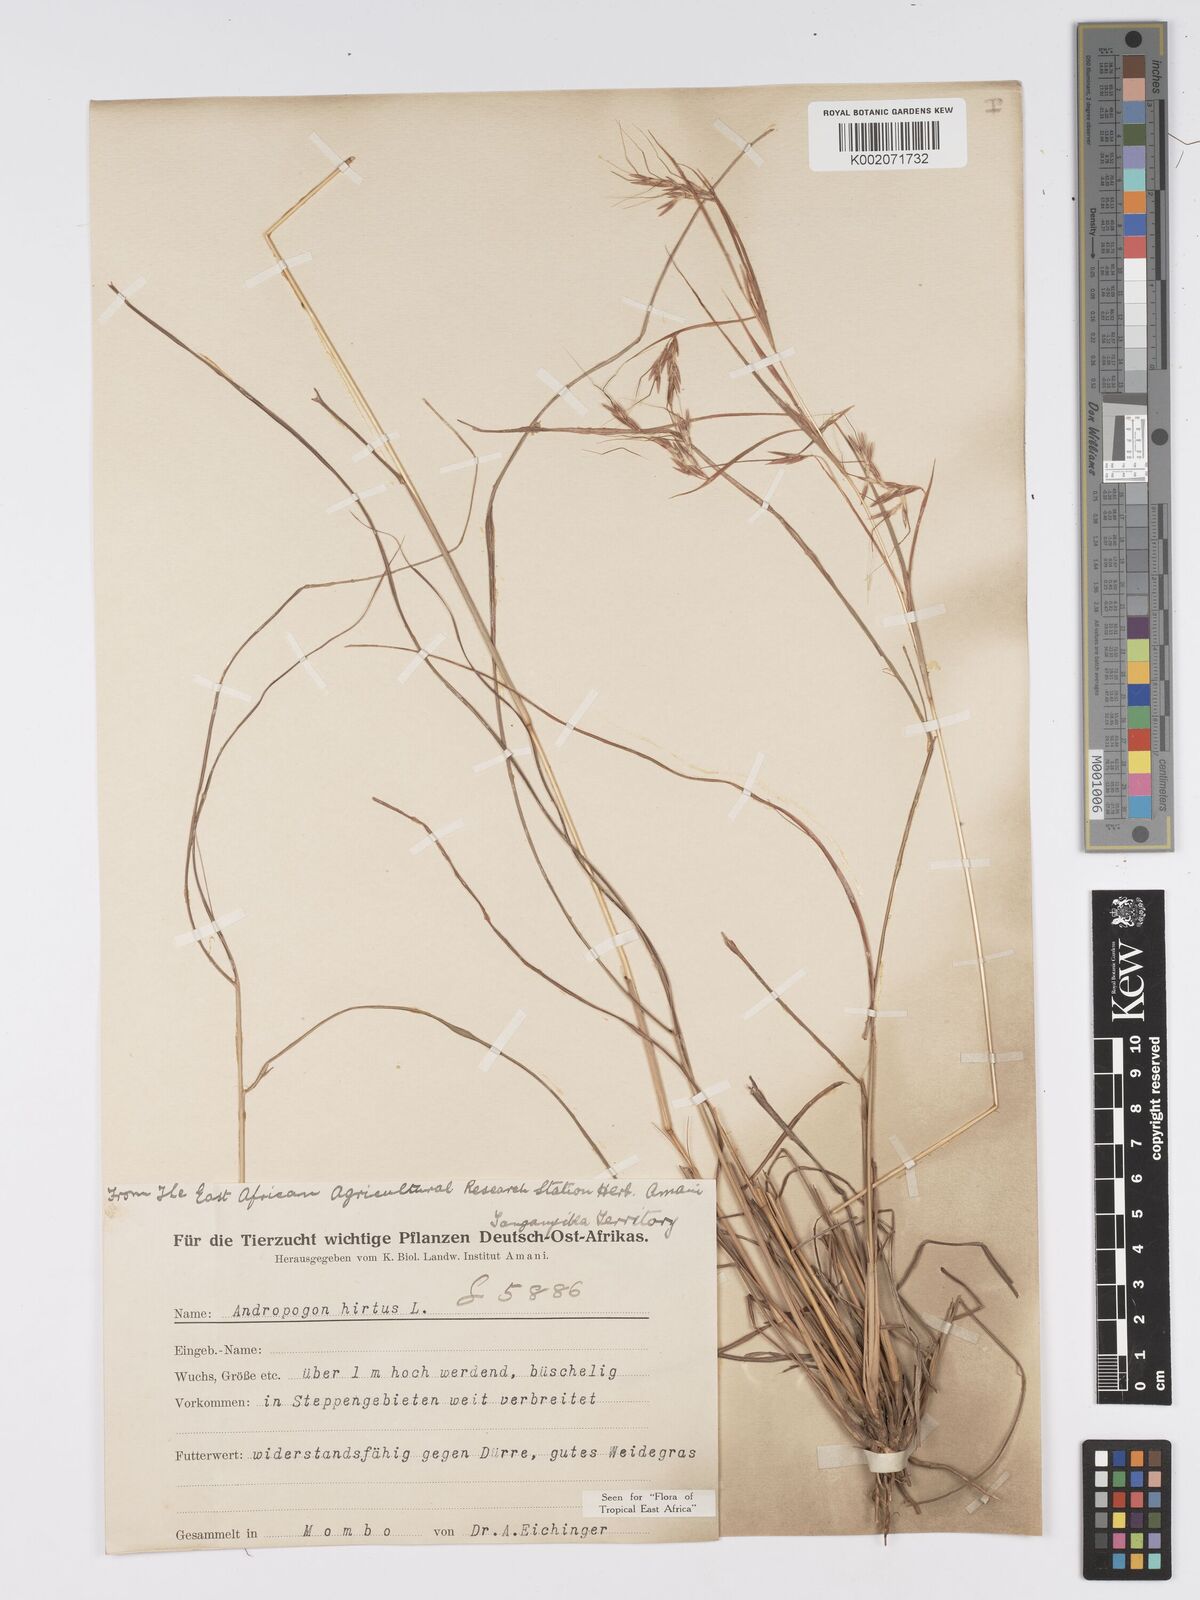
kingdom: Plantae
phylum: Tracheophyta
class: Liliopsida
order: Poales
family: Poaceae
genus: Hyparrhenia
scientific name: Hyparrhenia hirta
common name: Thatching grass
